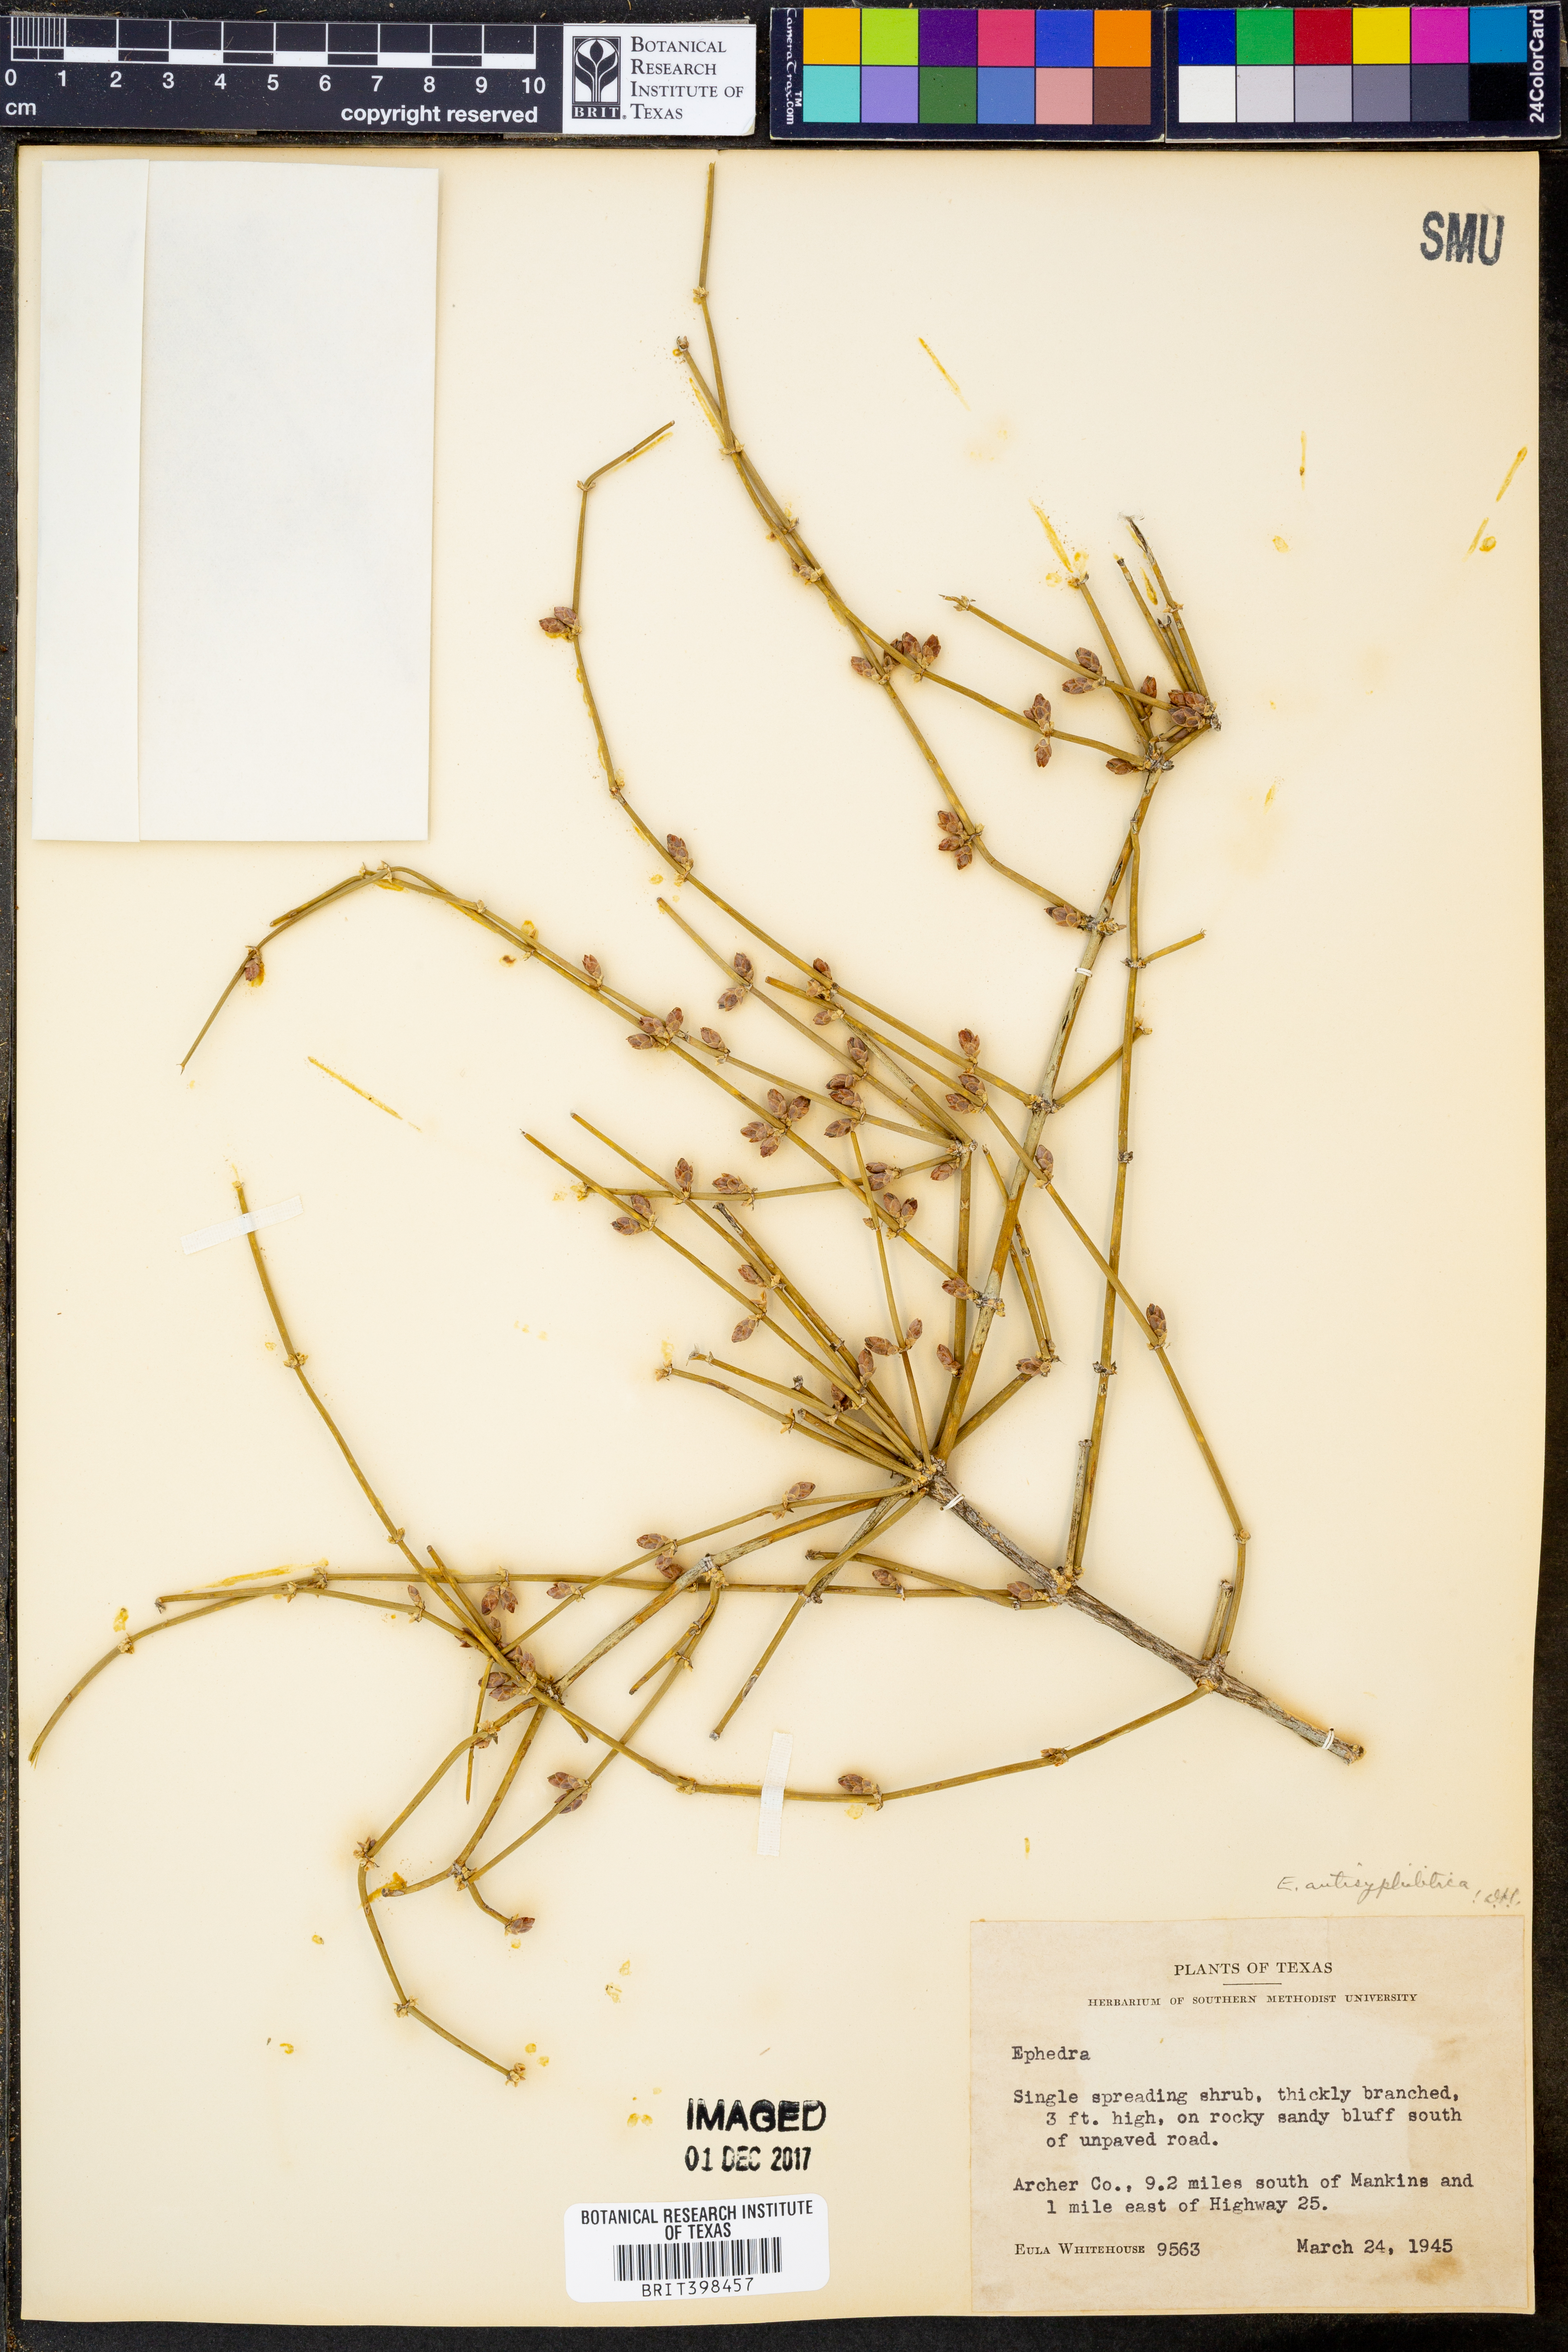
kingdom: Plantae
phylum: Tracheophyta
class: Gnetopsida
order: Ephedrales
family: Ephedraceae
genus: Ephedra
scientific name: Ephedra antisyphilitica
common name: Clipweed
